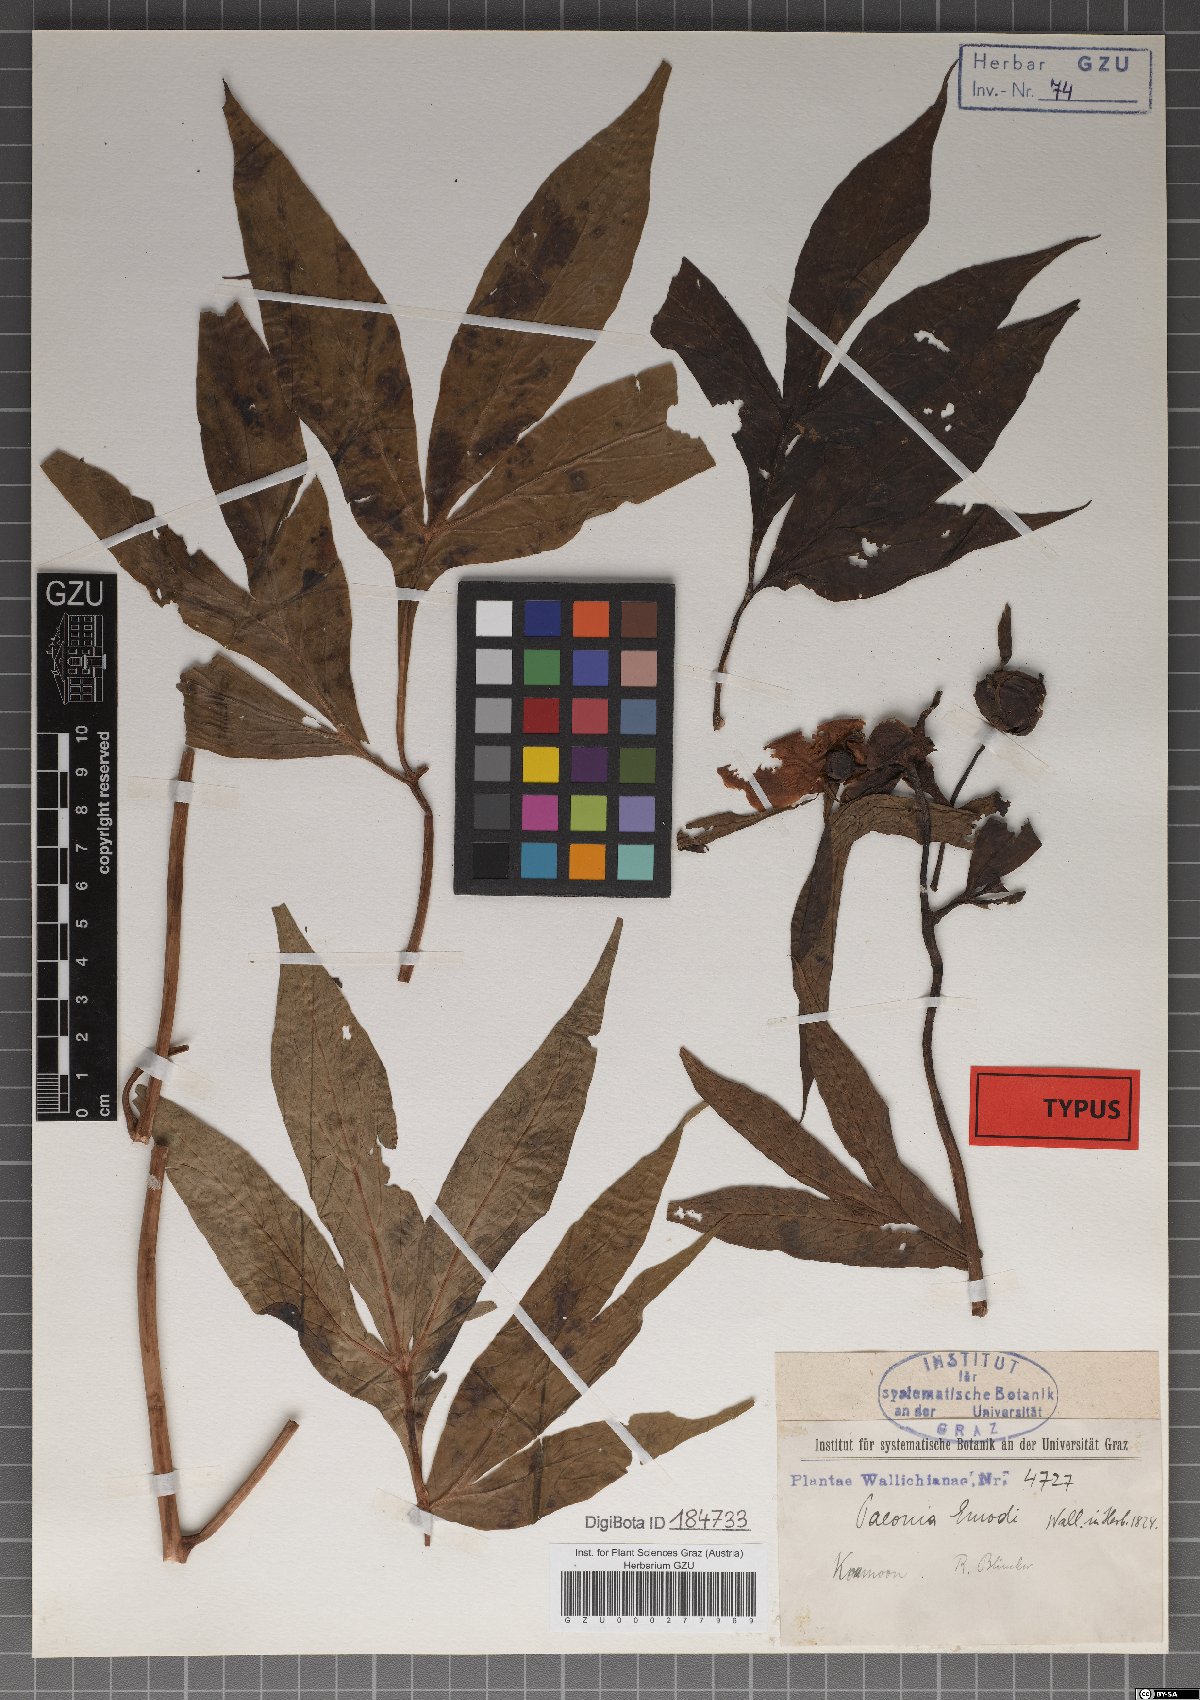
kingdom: Plantae
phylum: Tracheophyta
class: Magnoliopsida
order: Saxifragales
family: Paeoniaceae
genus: Paeonia
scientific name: Paeonia emodi
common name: Himalayan peony
